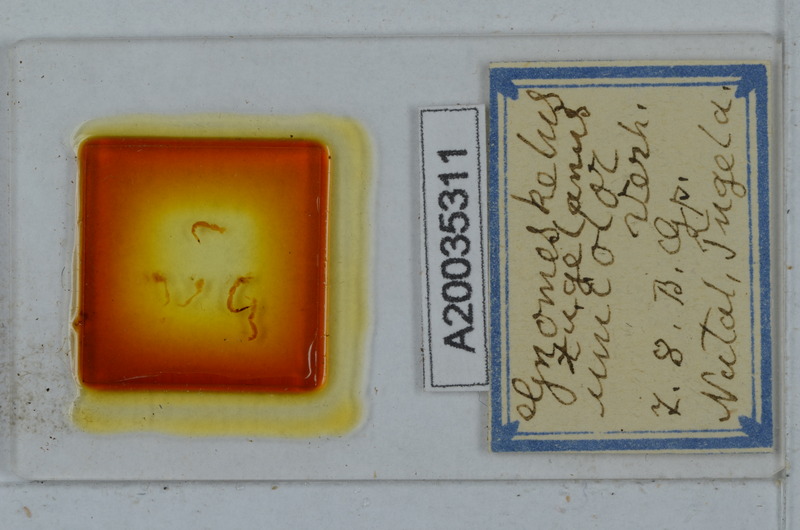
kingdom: Animalia
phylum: Arthropoda
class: Diplopoda
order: Polydesmida
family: Dalodesmidae
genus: Gnomeskelus
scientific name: Gnomeskelus tugelanus
